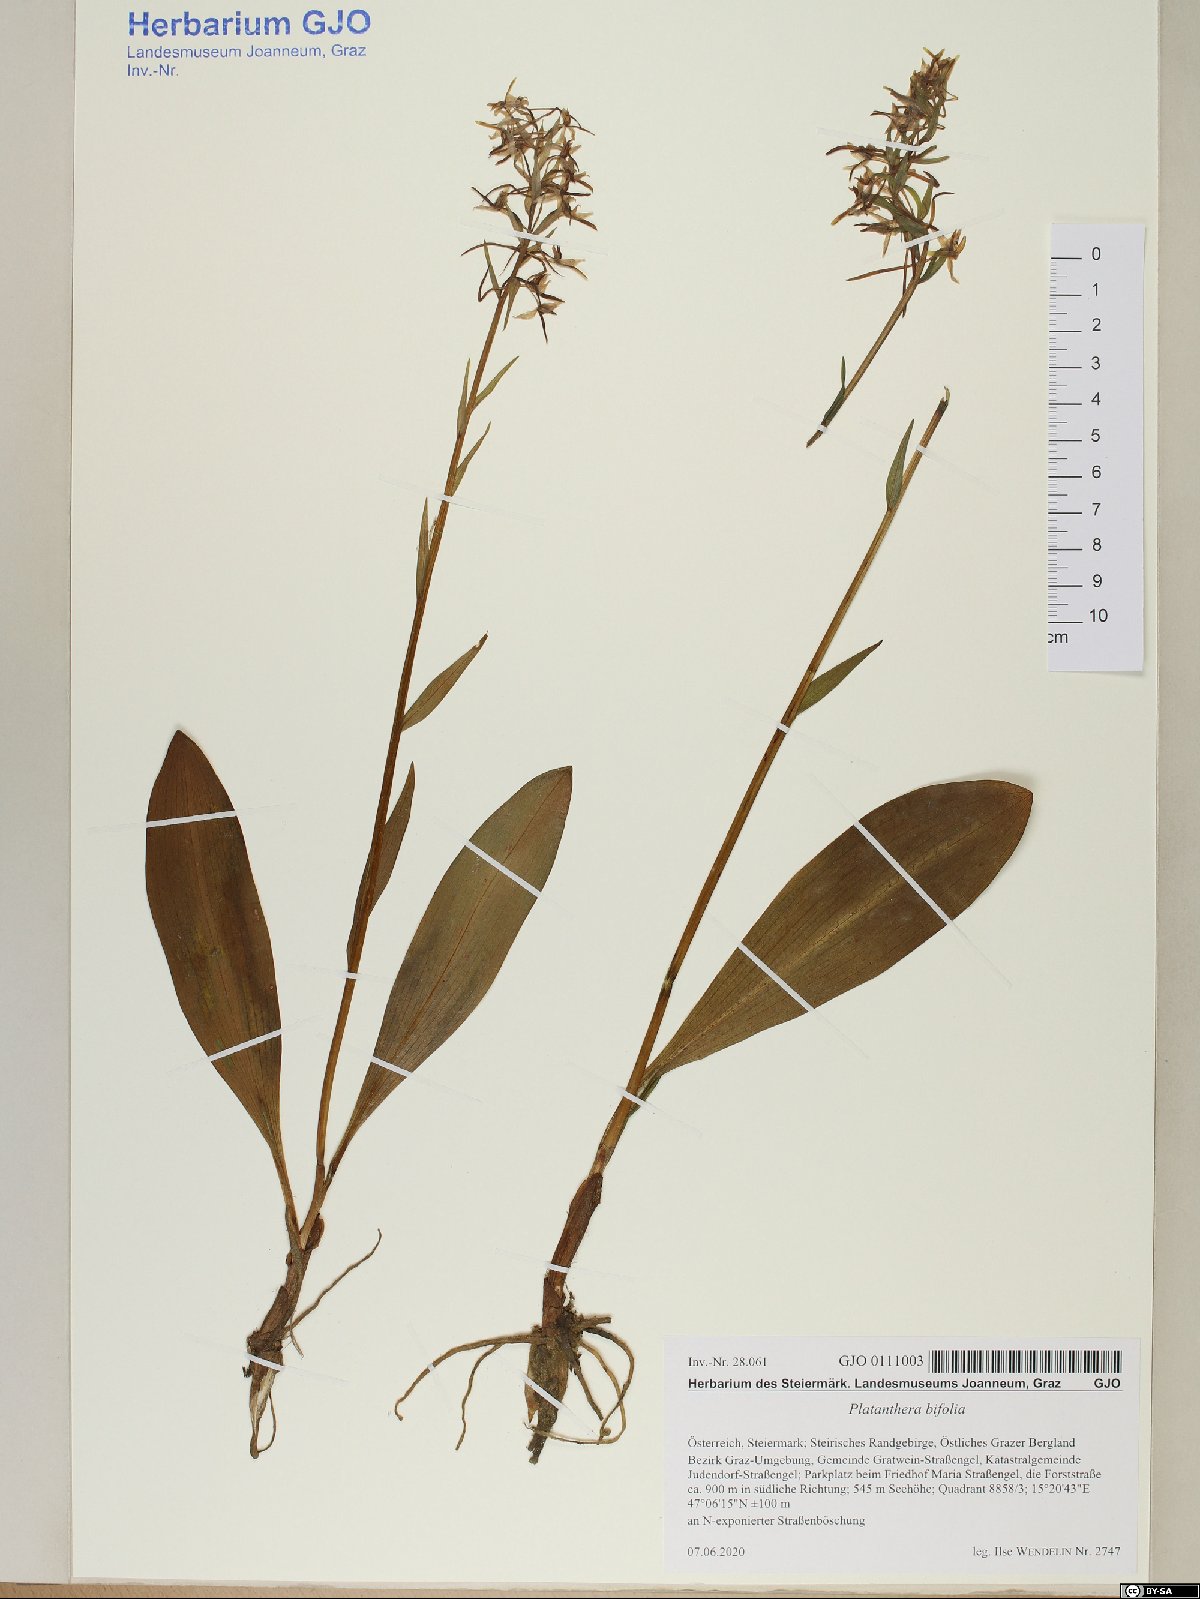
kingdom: Plantae
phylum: Tracheophyta
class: Liliopsida
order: Asparagales
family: Orchidaceae
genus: Platanthera
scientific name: Platanthera bifolia
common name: Lesser butterfly-orchid
